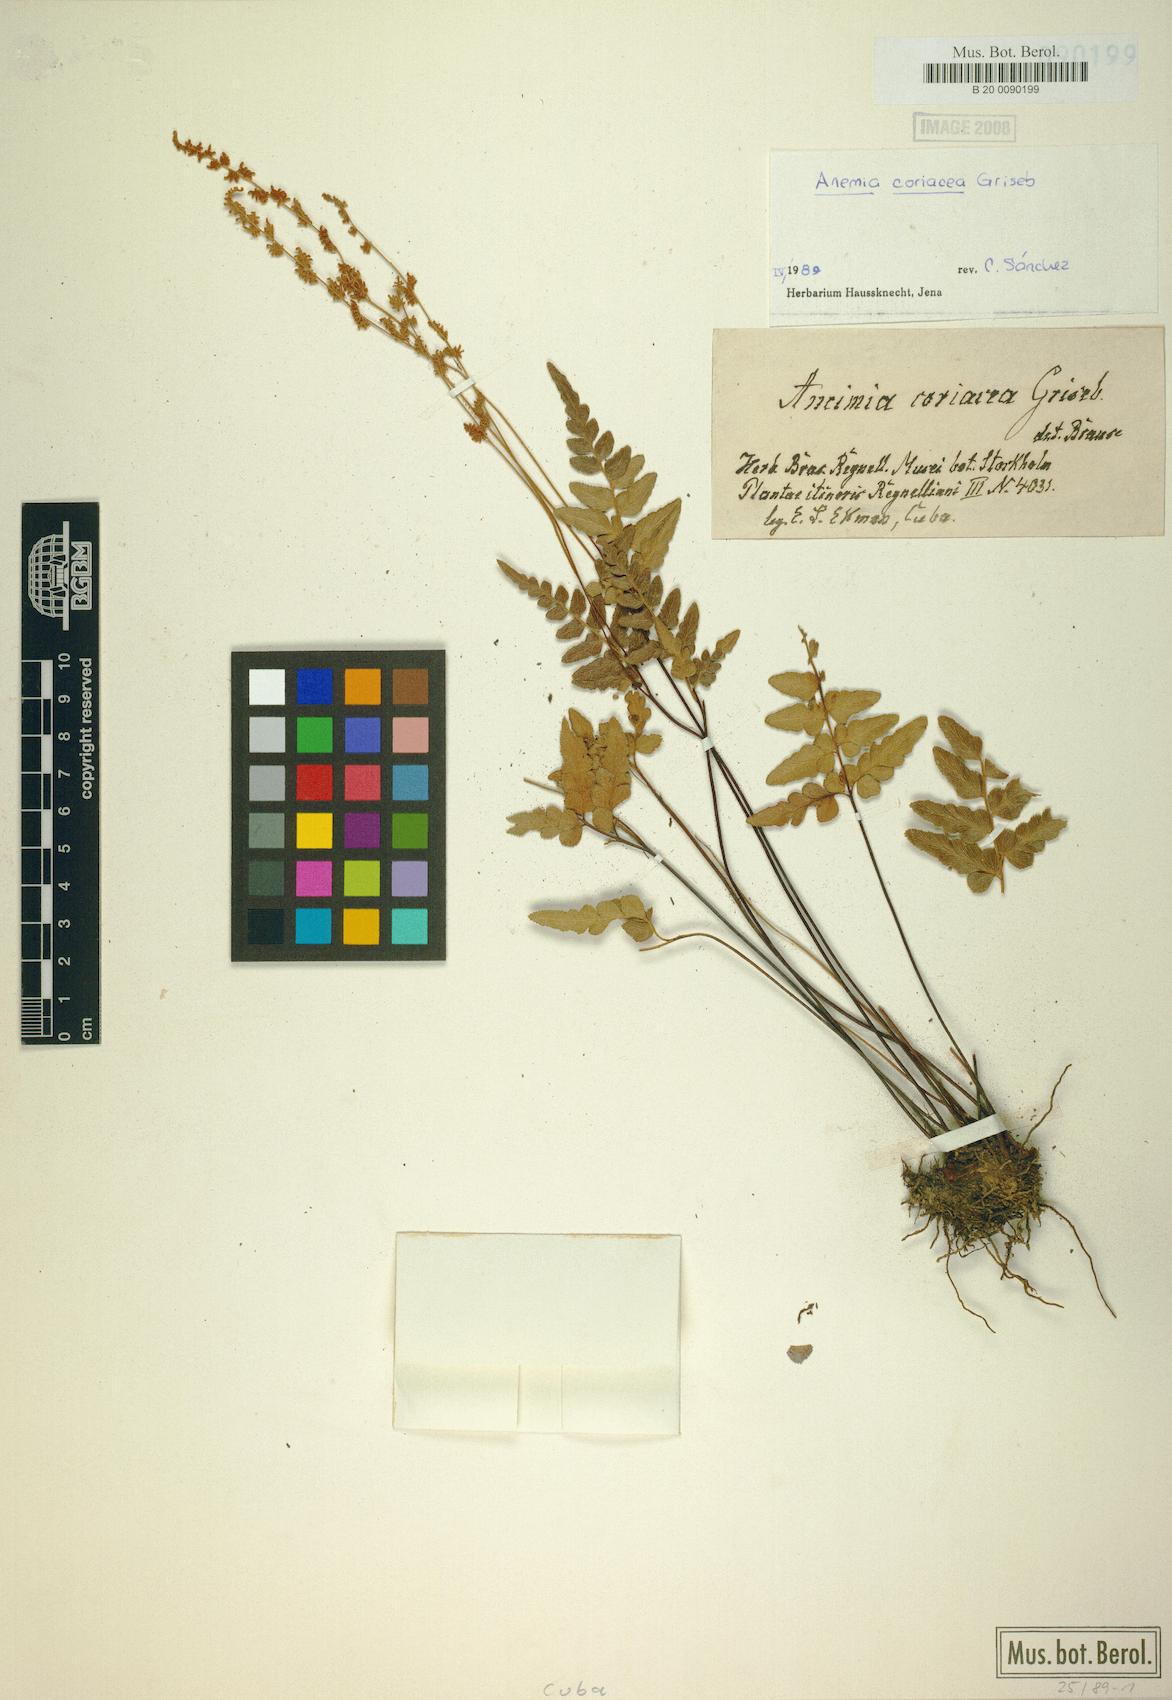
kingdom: Plantae
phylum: Tracheophyta
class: Polypodiopsida
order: Schizaeales
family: Anemiaceae
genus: Anemia
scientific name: Anemia coriacea
